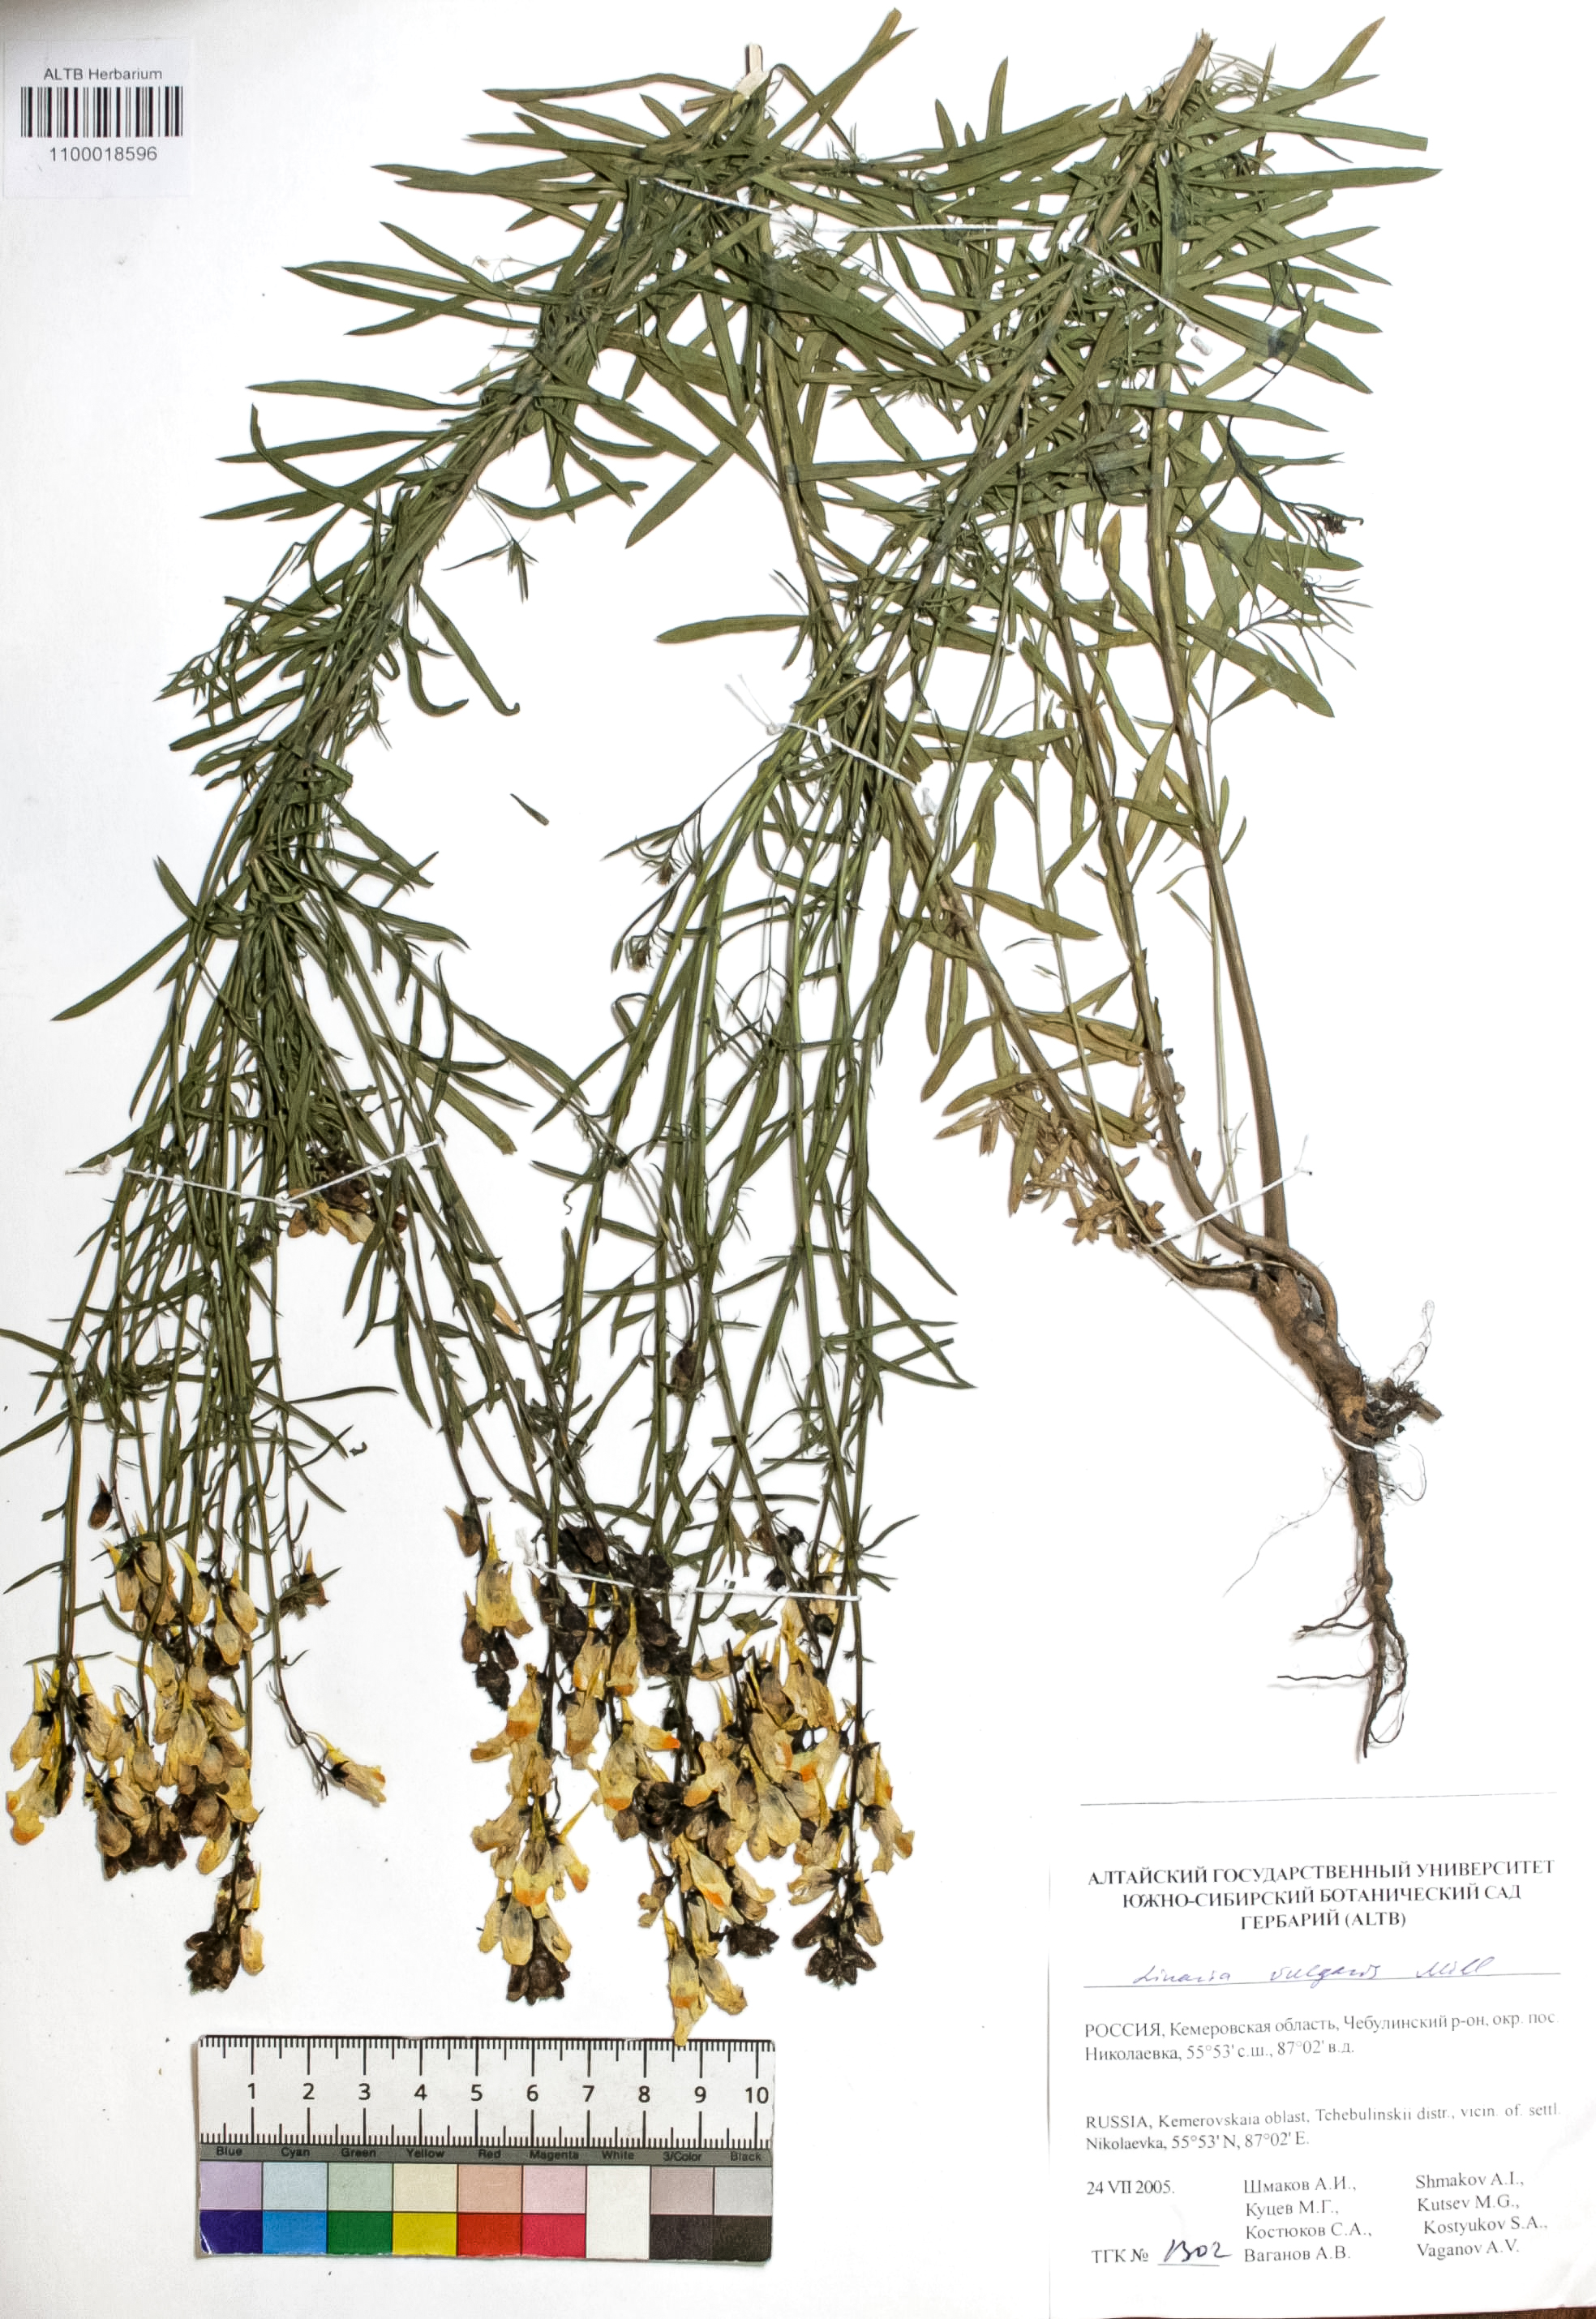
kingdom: Plantae
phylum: Tracheophyta
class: Magnoliopsida
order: Lamiales
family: Plantaginaceae
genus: Linaria
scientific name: Linaria vulgaris
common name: Butter and eggs
